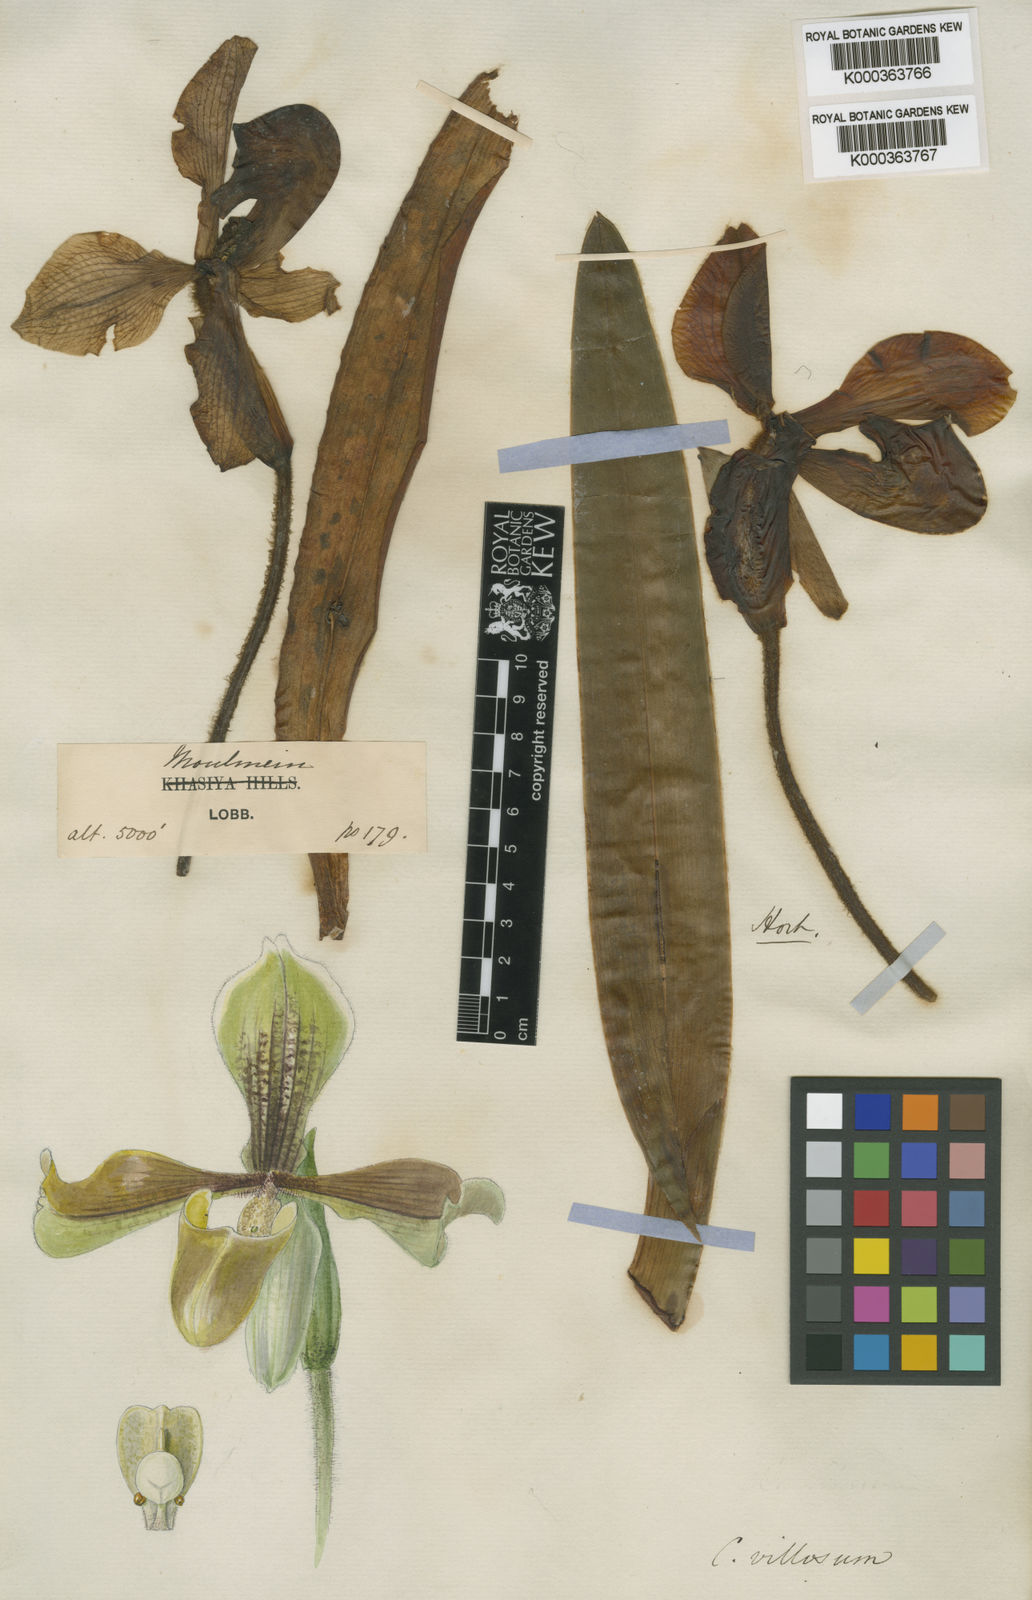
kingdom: Plantae
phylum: Tracheophyta
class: Liliopsida
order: Asparagales
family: Orchidaceae
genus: Paphiopedilum
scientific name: Paphiopedilum villosum
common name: Villose paphiopedilum
